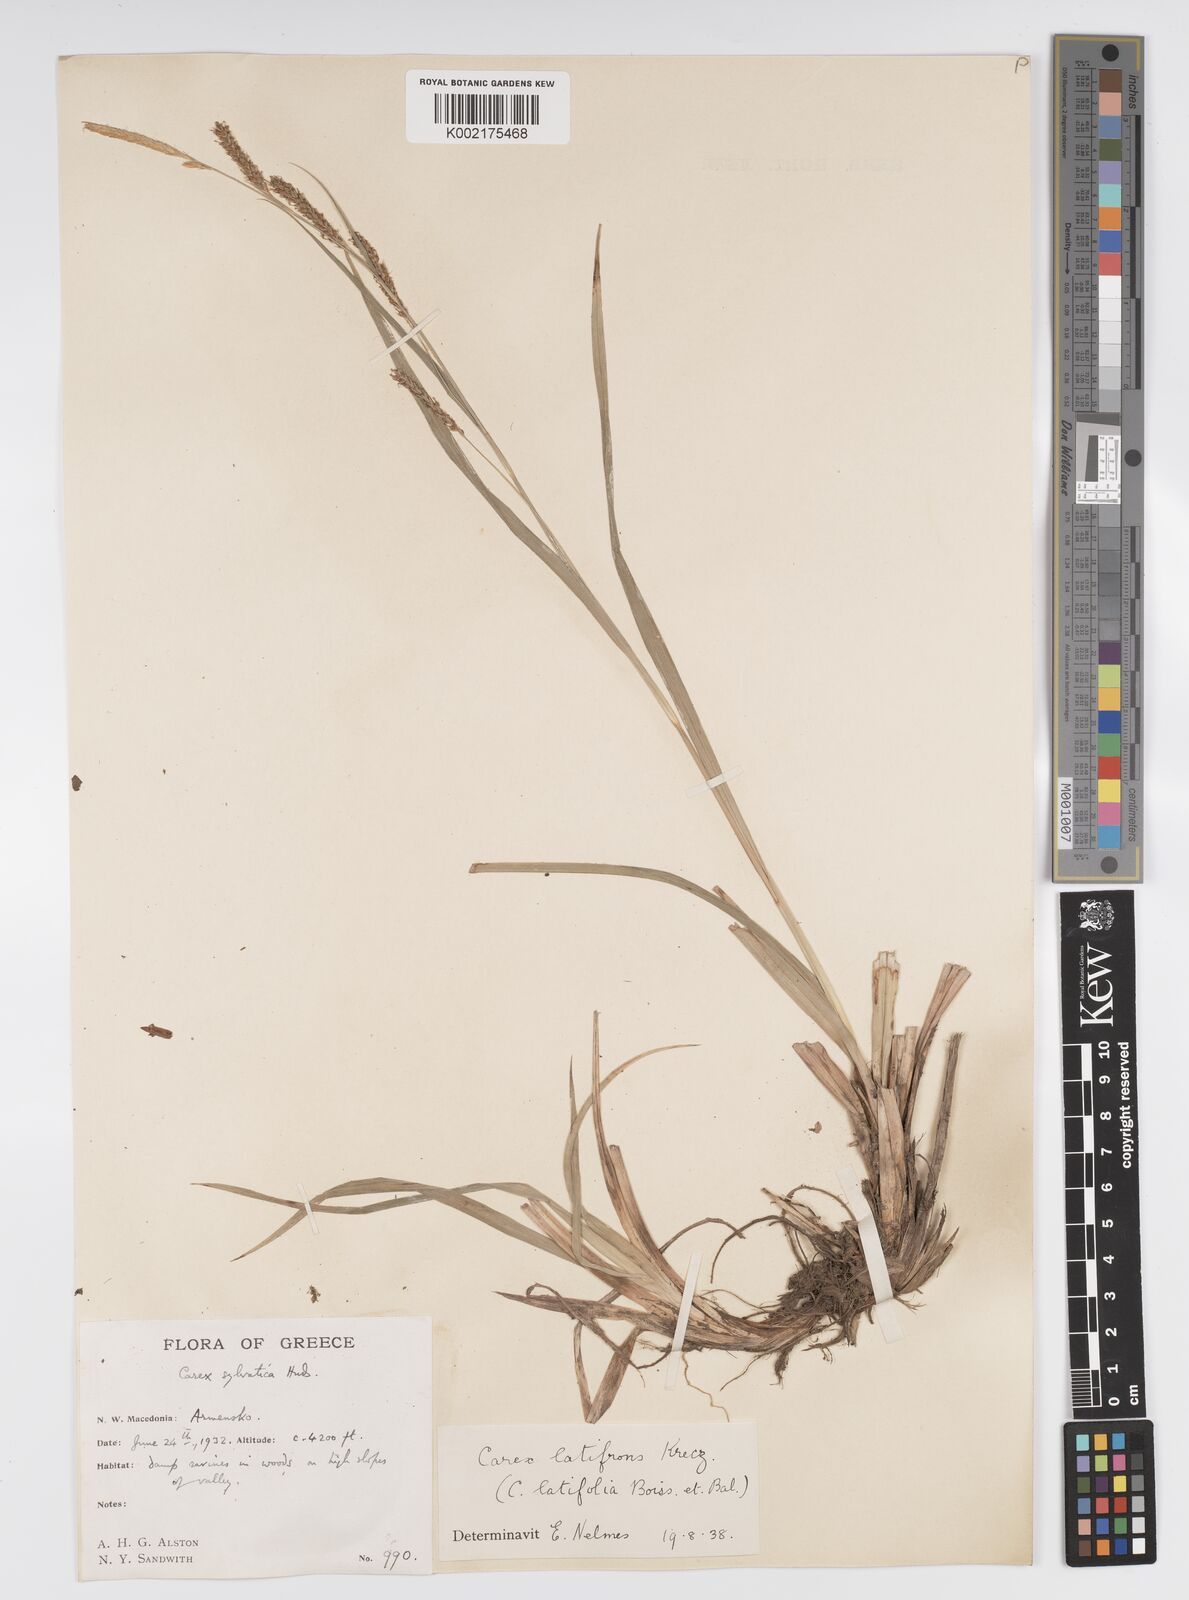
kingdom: Plantae
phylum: Tracheophyta
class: Liliopsida
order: Poales
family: Cyperaceae
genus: Carex
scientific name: Carex sylvatica
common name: Wood-sedge
